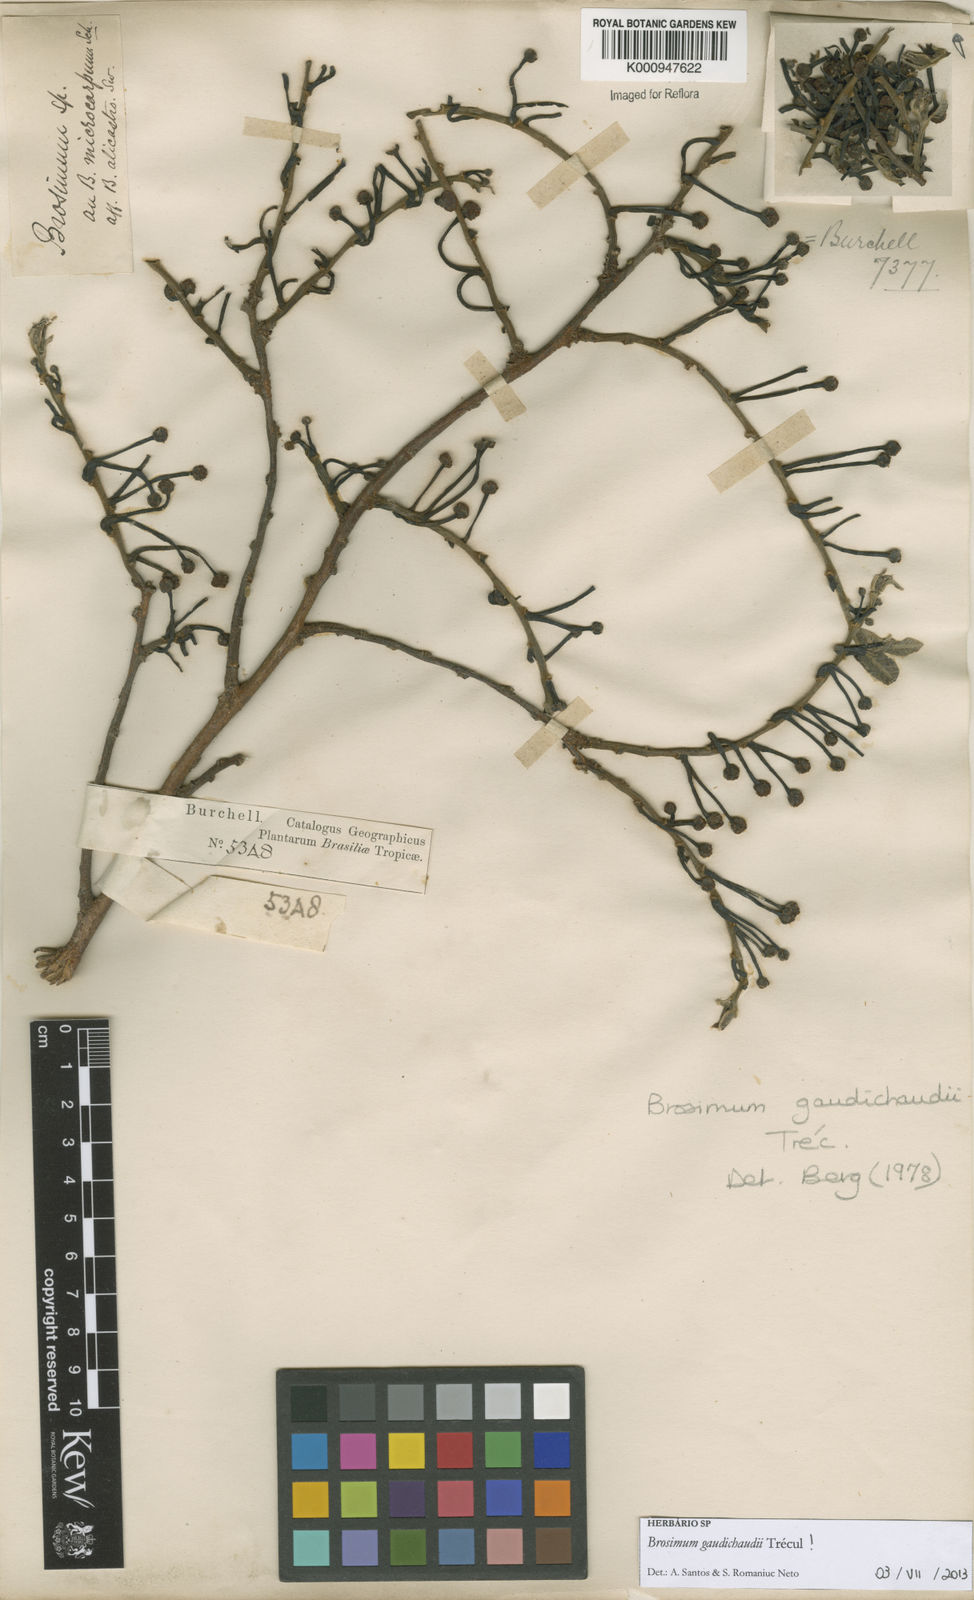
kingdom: Plantae
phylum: Tracheophyta
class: Magnoliopsida
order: Rosales
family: Moraceae
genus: Brosimum
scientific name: Brosimum
